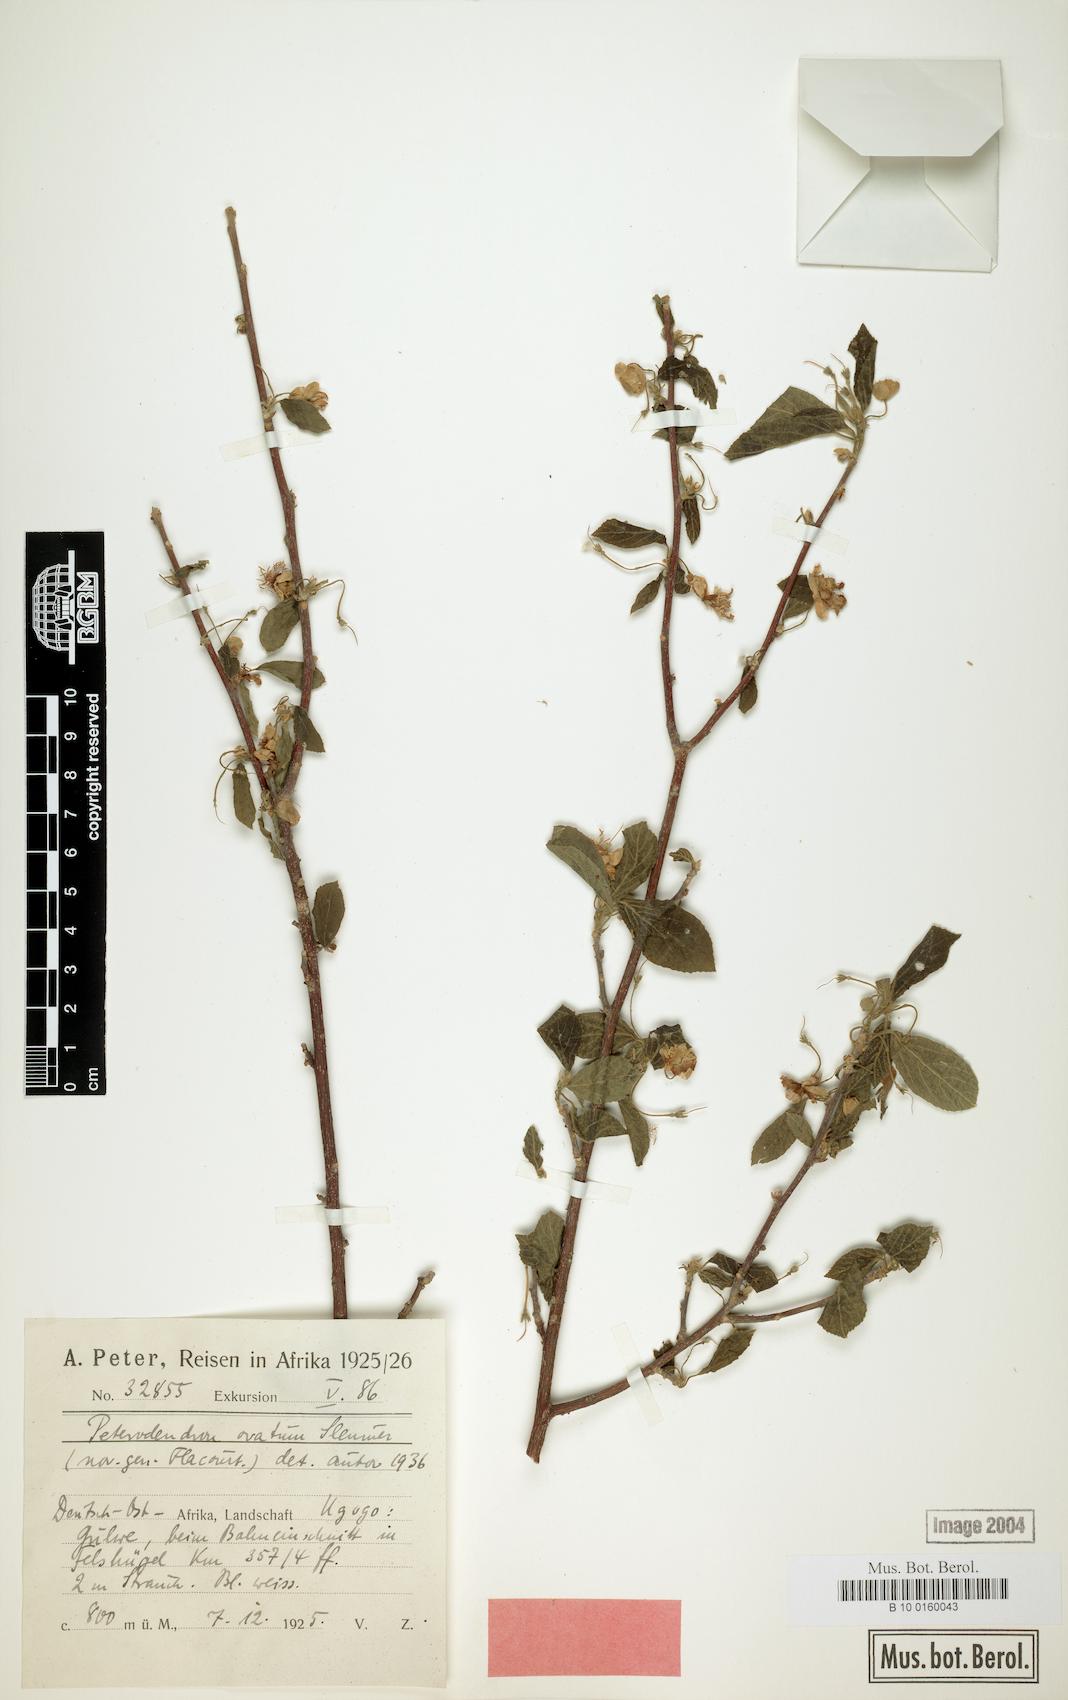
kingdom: Plantae
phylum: Tracheophyta
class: Magnoliopsida
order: Malpighiales
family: Achariaceae
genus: Peterodendron
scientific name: Peterodendron ovatum
